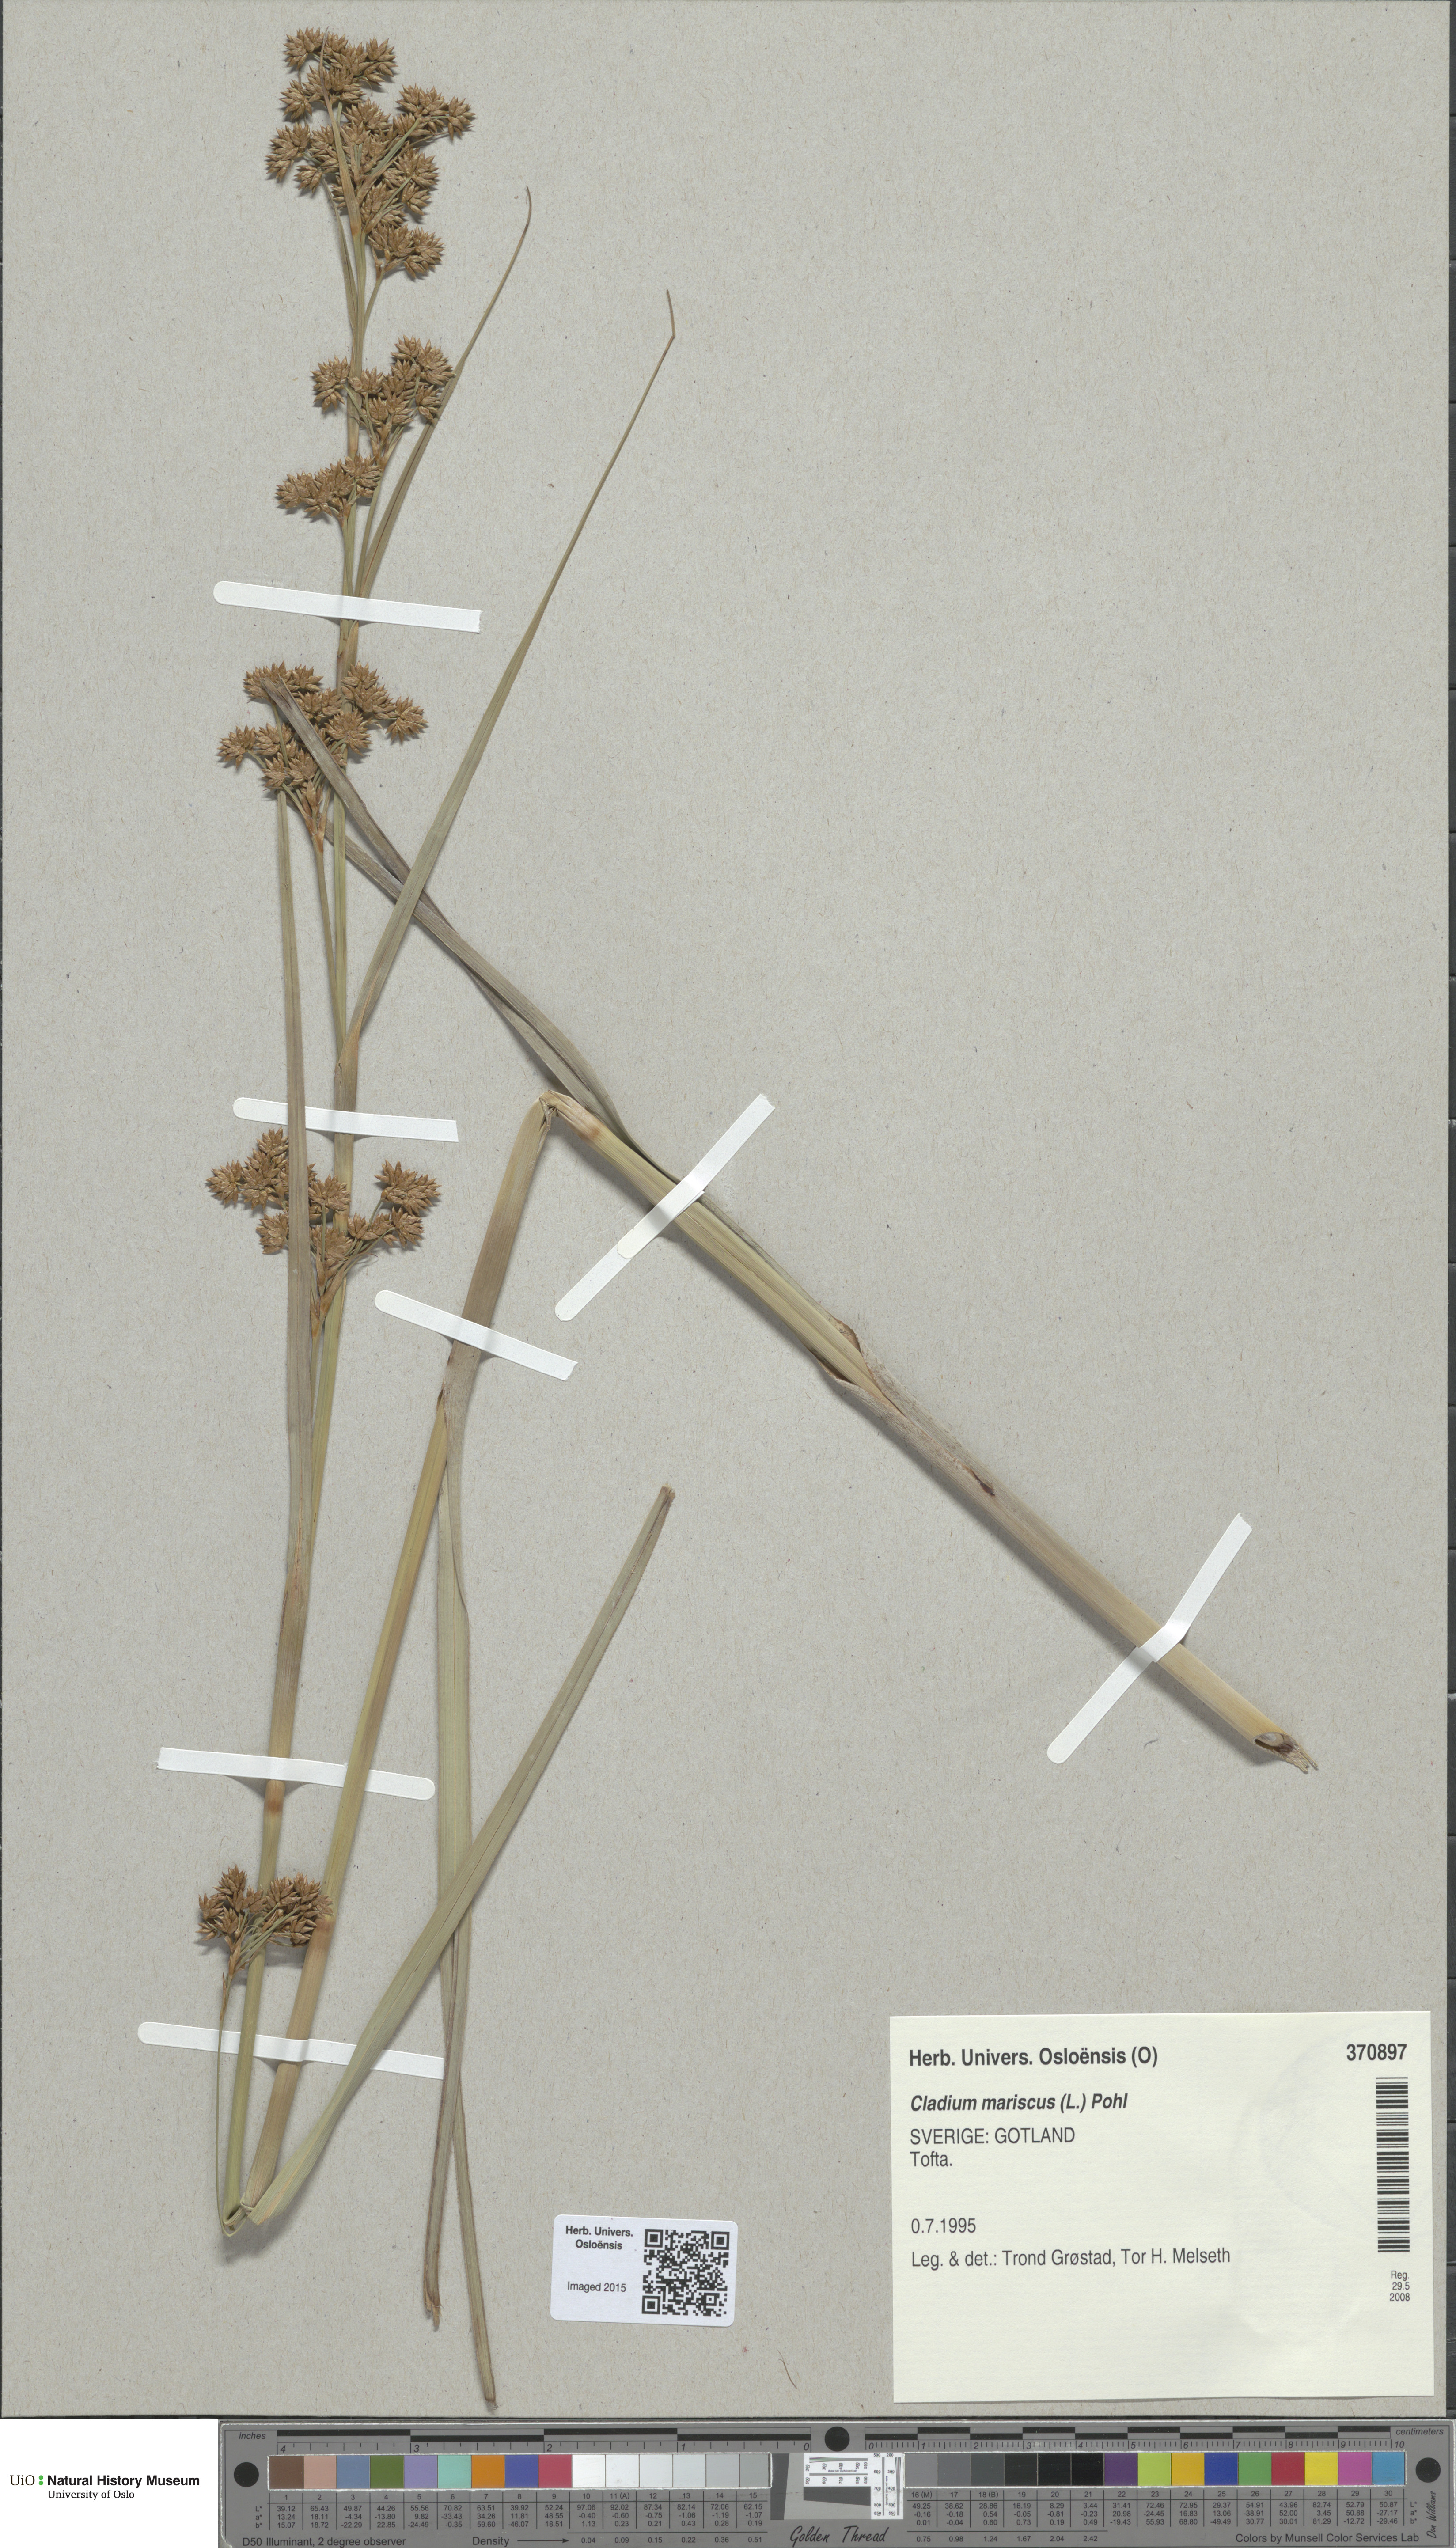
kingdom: Plantae
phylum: Tracheophyta
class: Liliopsida
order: Poales
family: Cyperaceae
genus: Cladium
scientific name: Cladium mariscus
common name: Great fen-sedge
